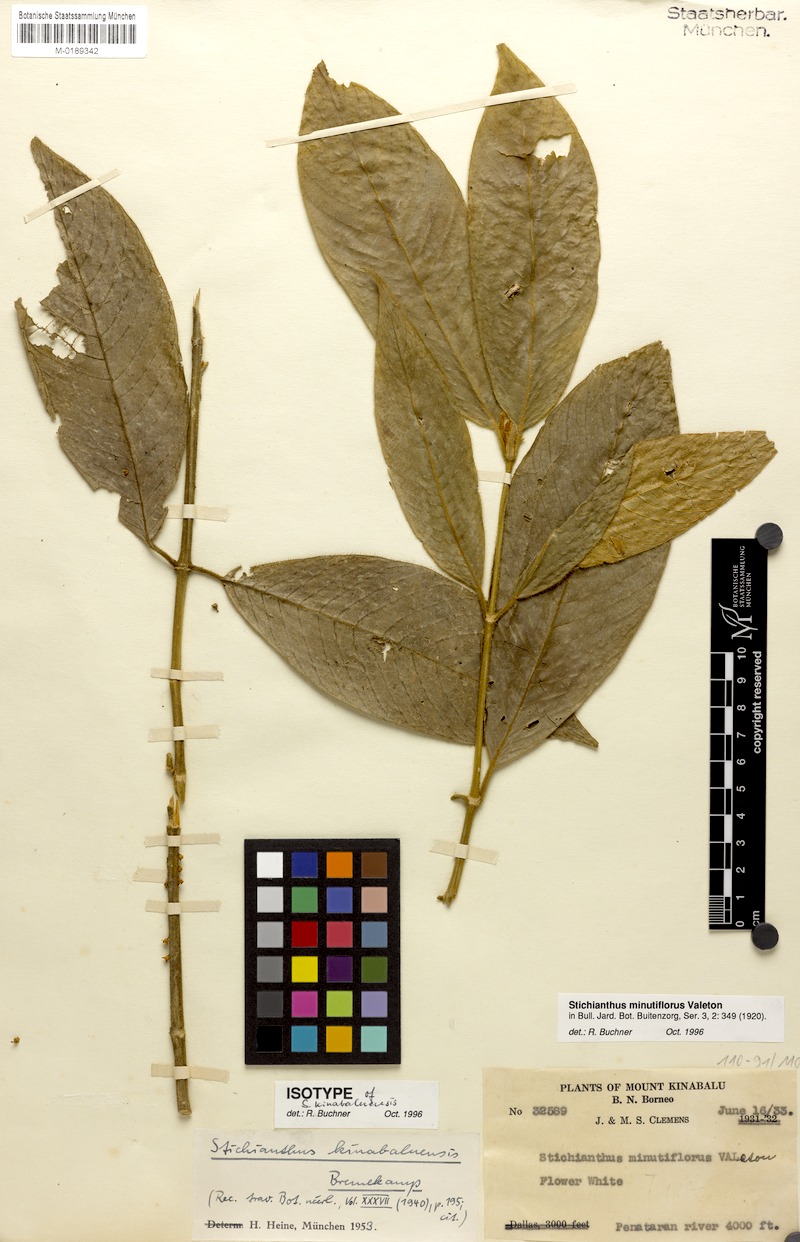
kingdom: Plantae
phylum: Tracheophyta
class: Magnoliopsida
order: Gentianales
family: Rubiaceae
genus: Stichianthus
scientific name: Stichianthus minutiflorus
